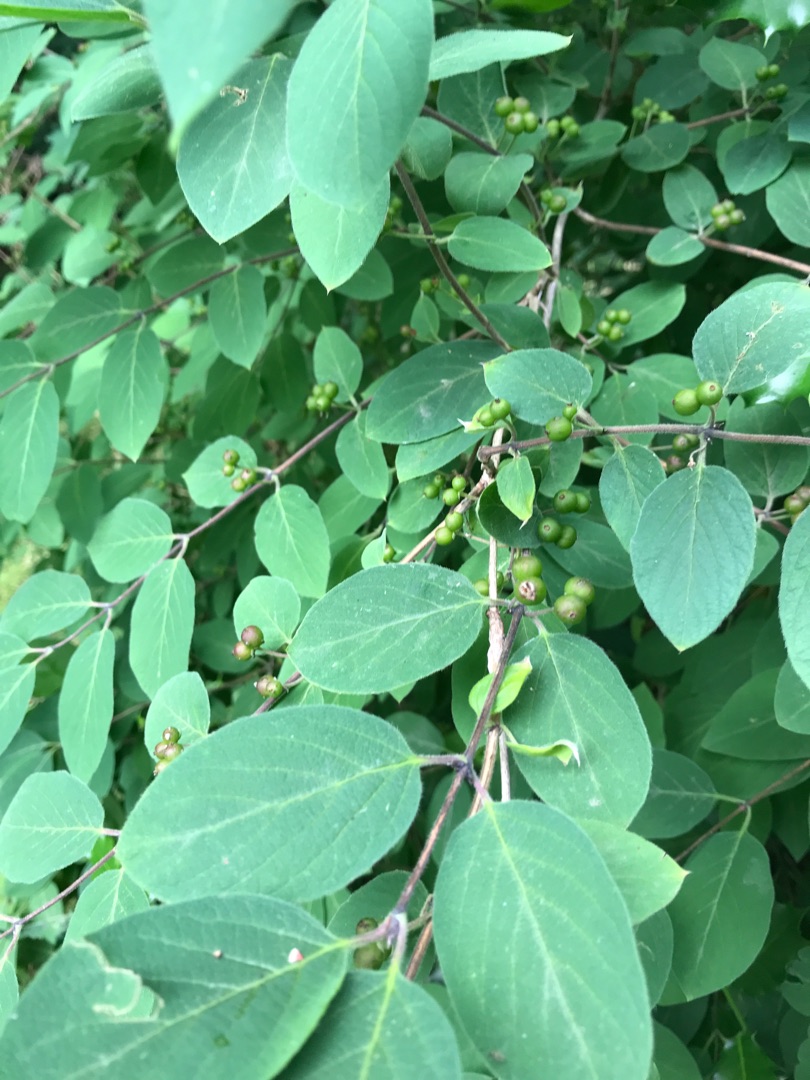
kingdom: Plantae
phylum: Tracheophyta
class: Magnoliopsida
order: Dipsacales
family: Caprifoliaceae
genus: Lonicera
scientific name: Lonicera xylosteum
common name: Dunet gedeblad
